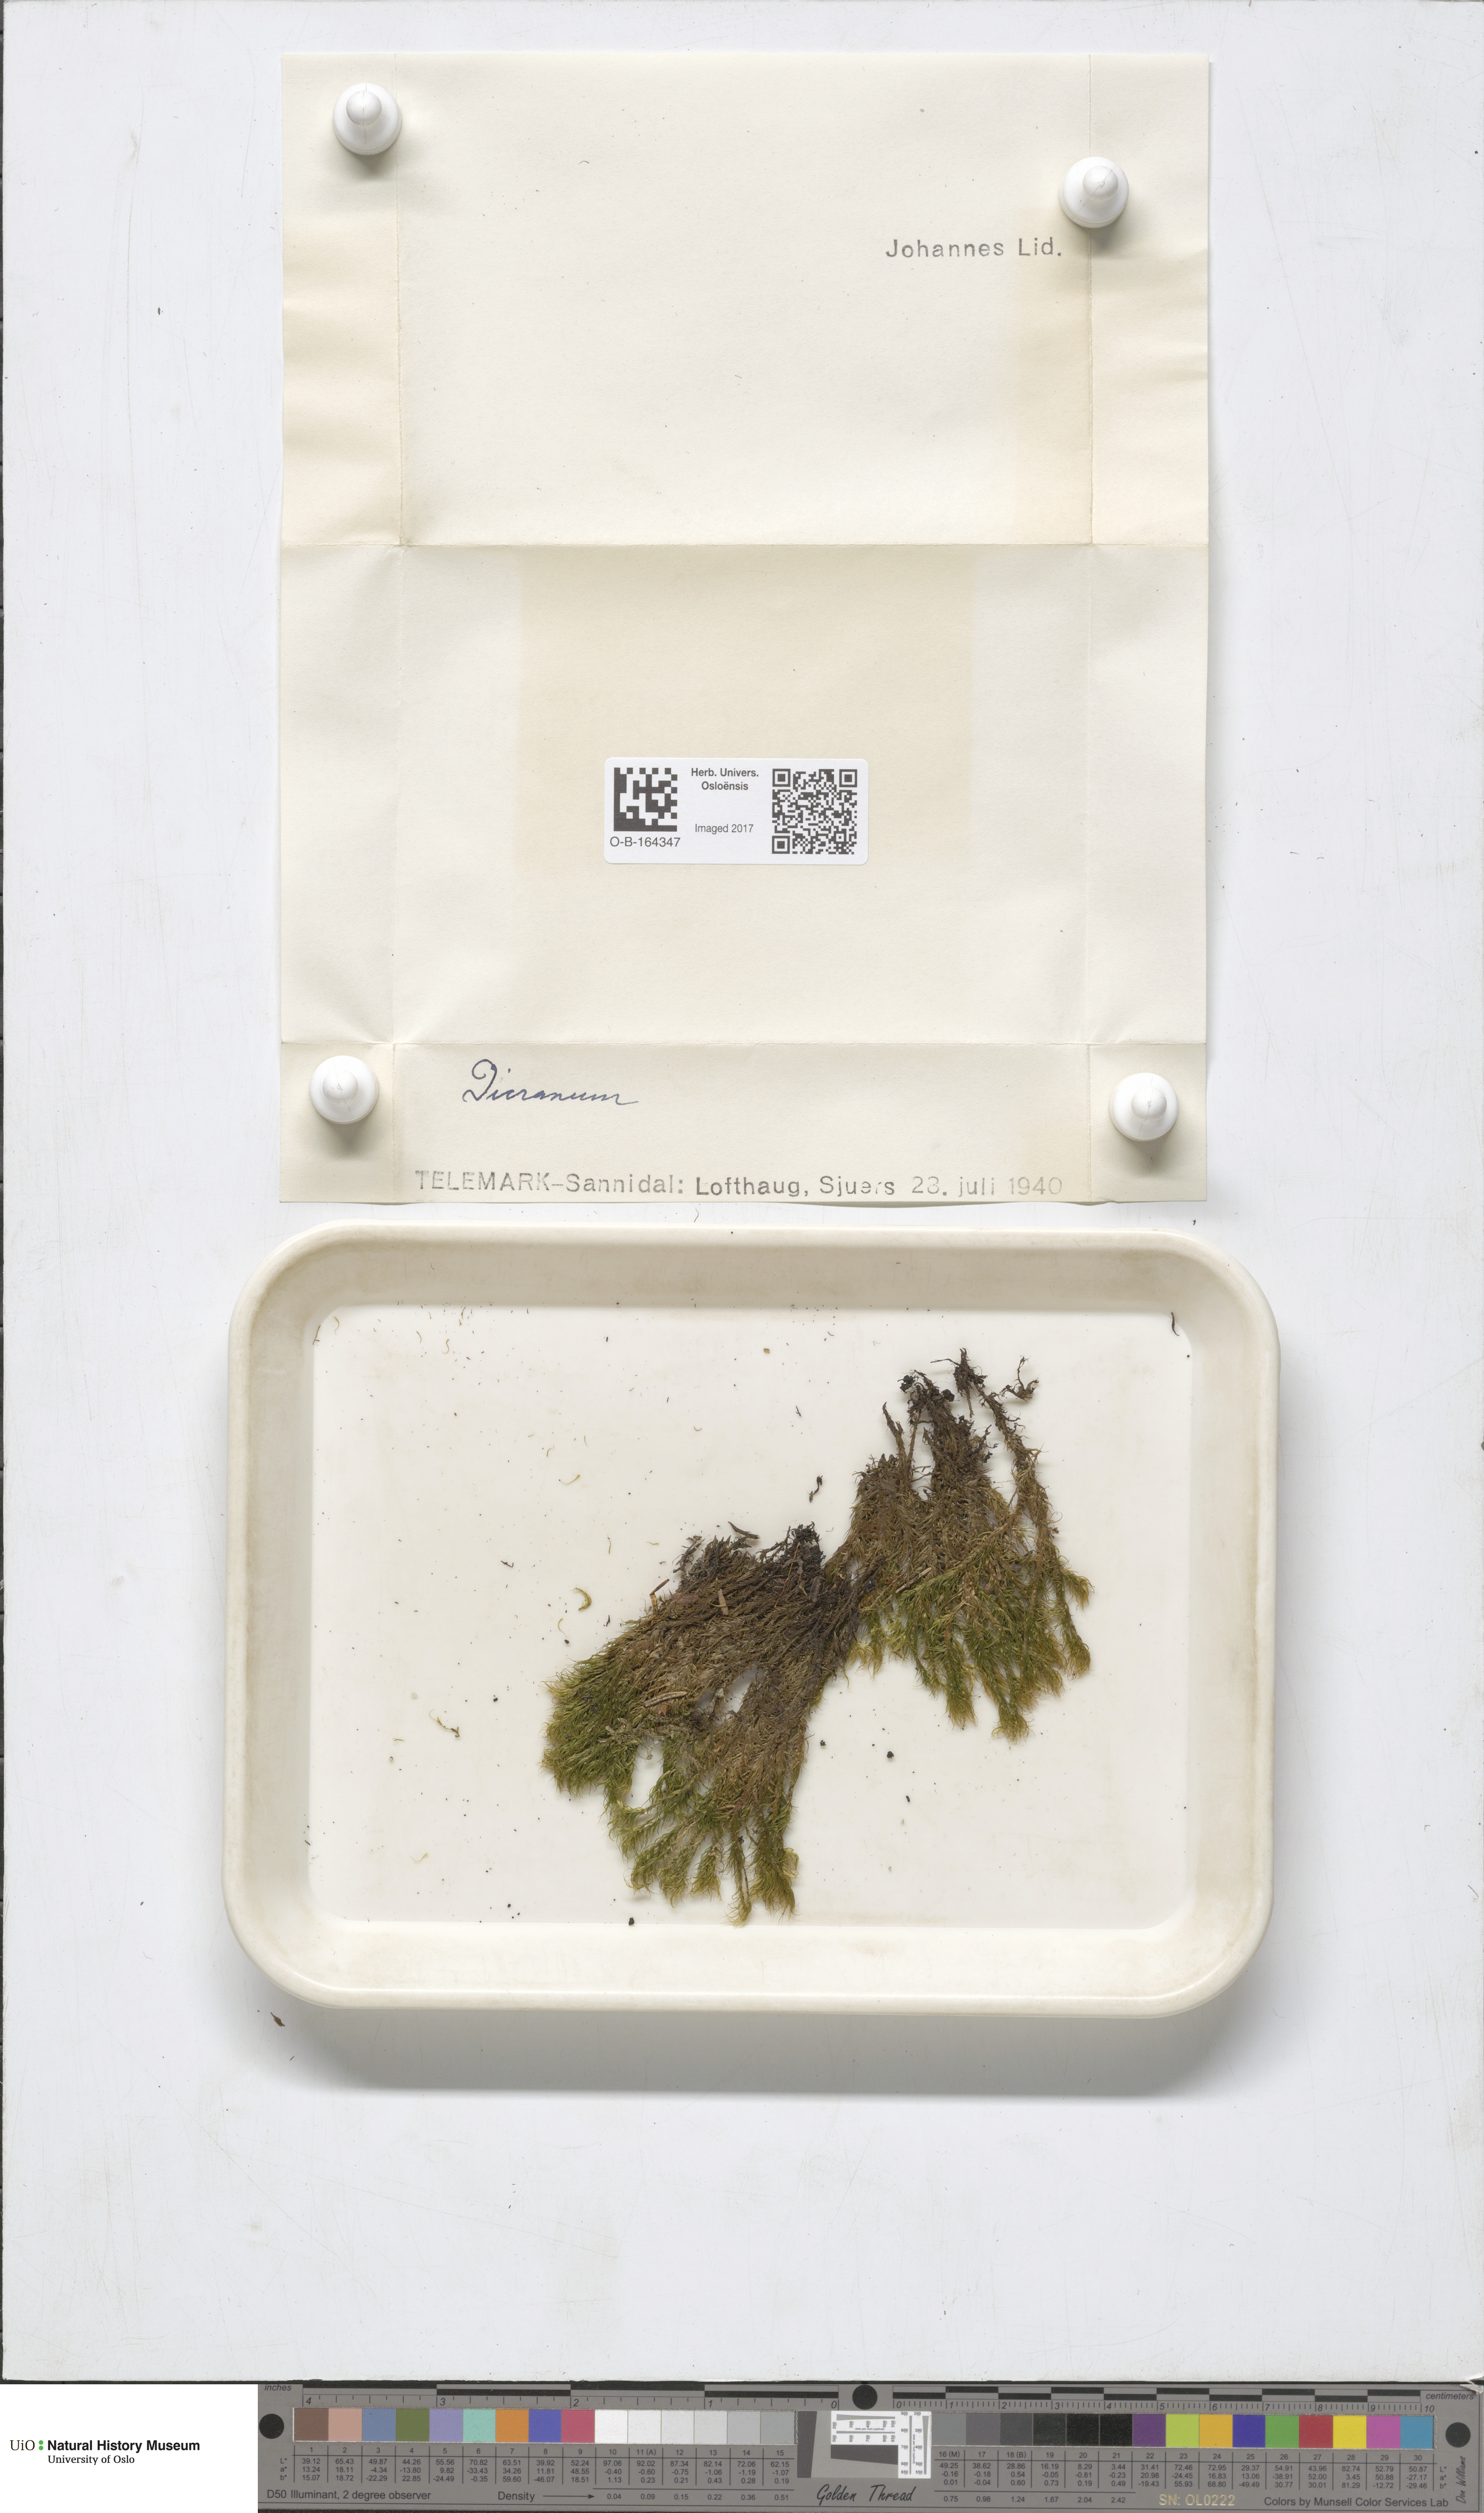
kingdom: Plantae
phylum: Bryophyta
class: Bryopsida
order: Dicranales
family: Dicranaceae
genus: Dicranum
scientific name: Dicranum
